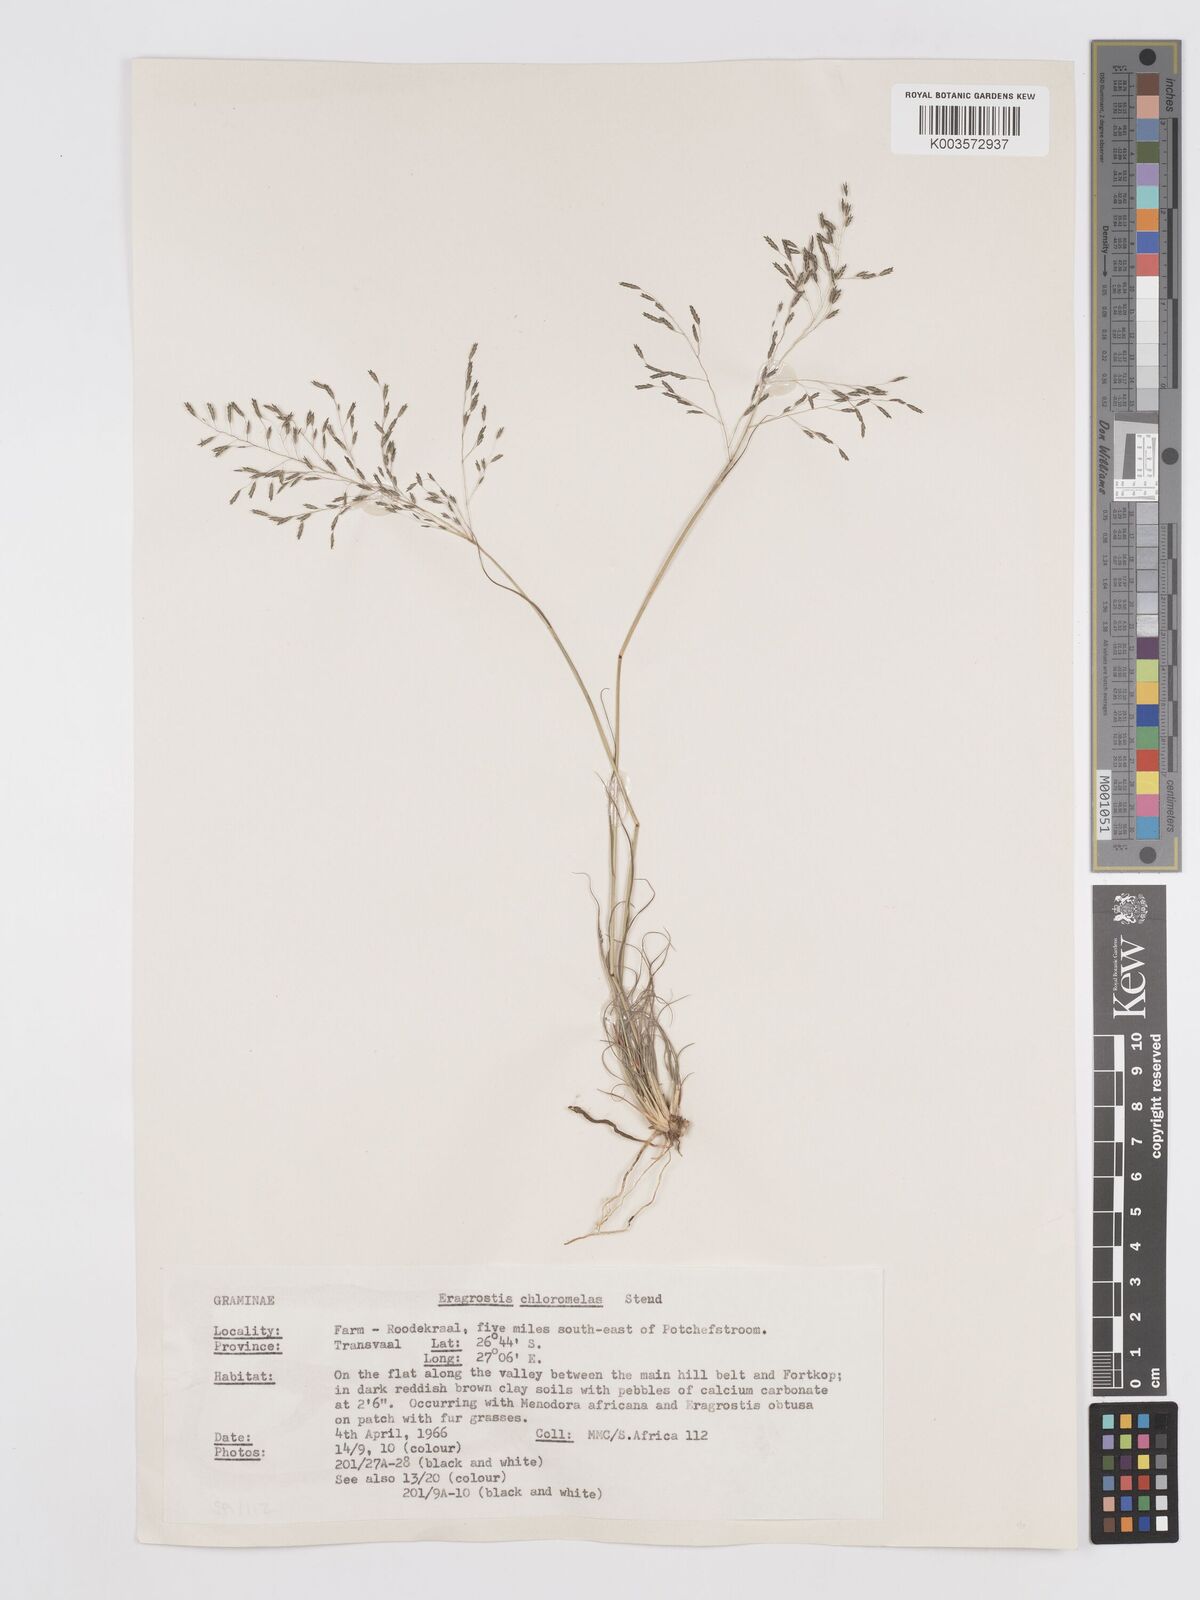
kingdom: Plantae
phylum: Tracheophyta
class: Liliopsida
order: Poales
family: Poaceae
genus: Eragrostis
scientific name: Eragrostis curvula
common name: African love-grass
